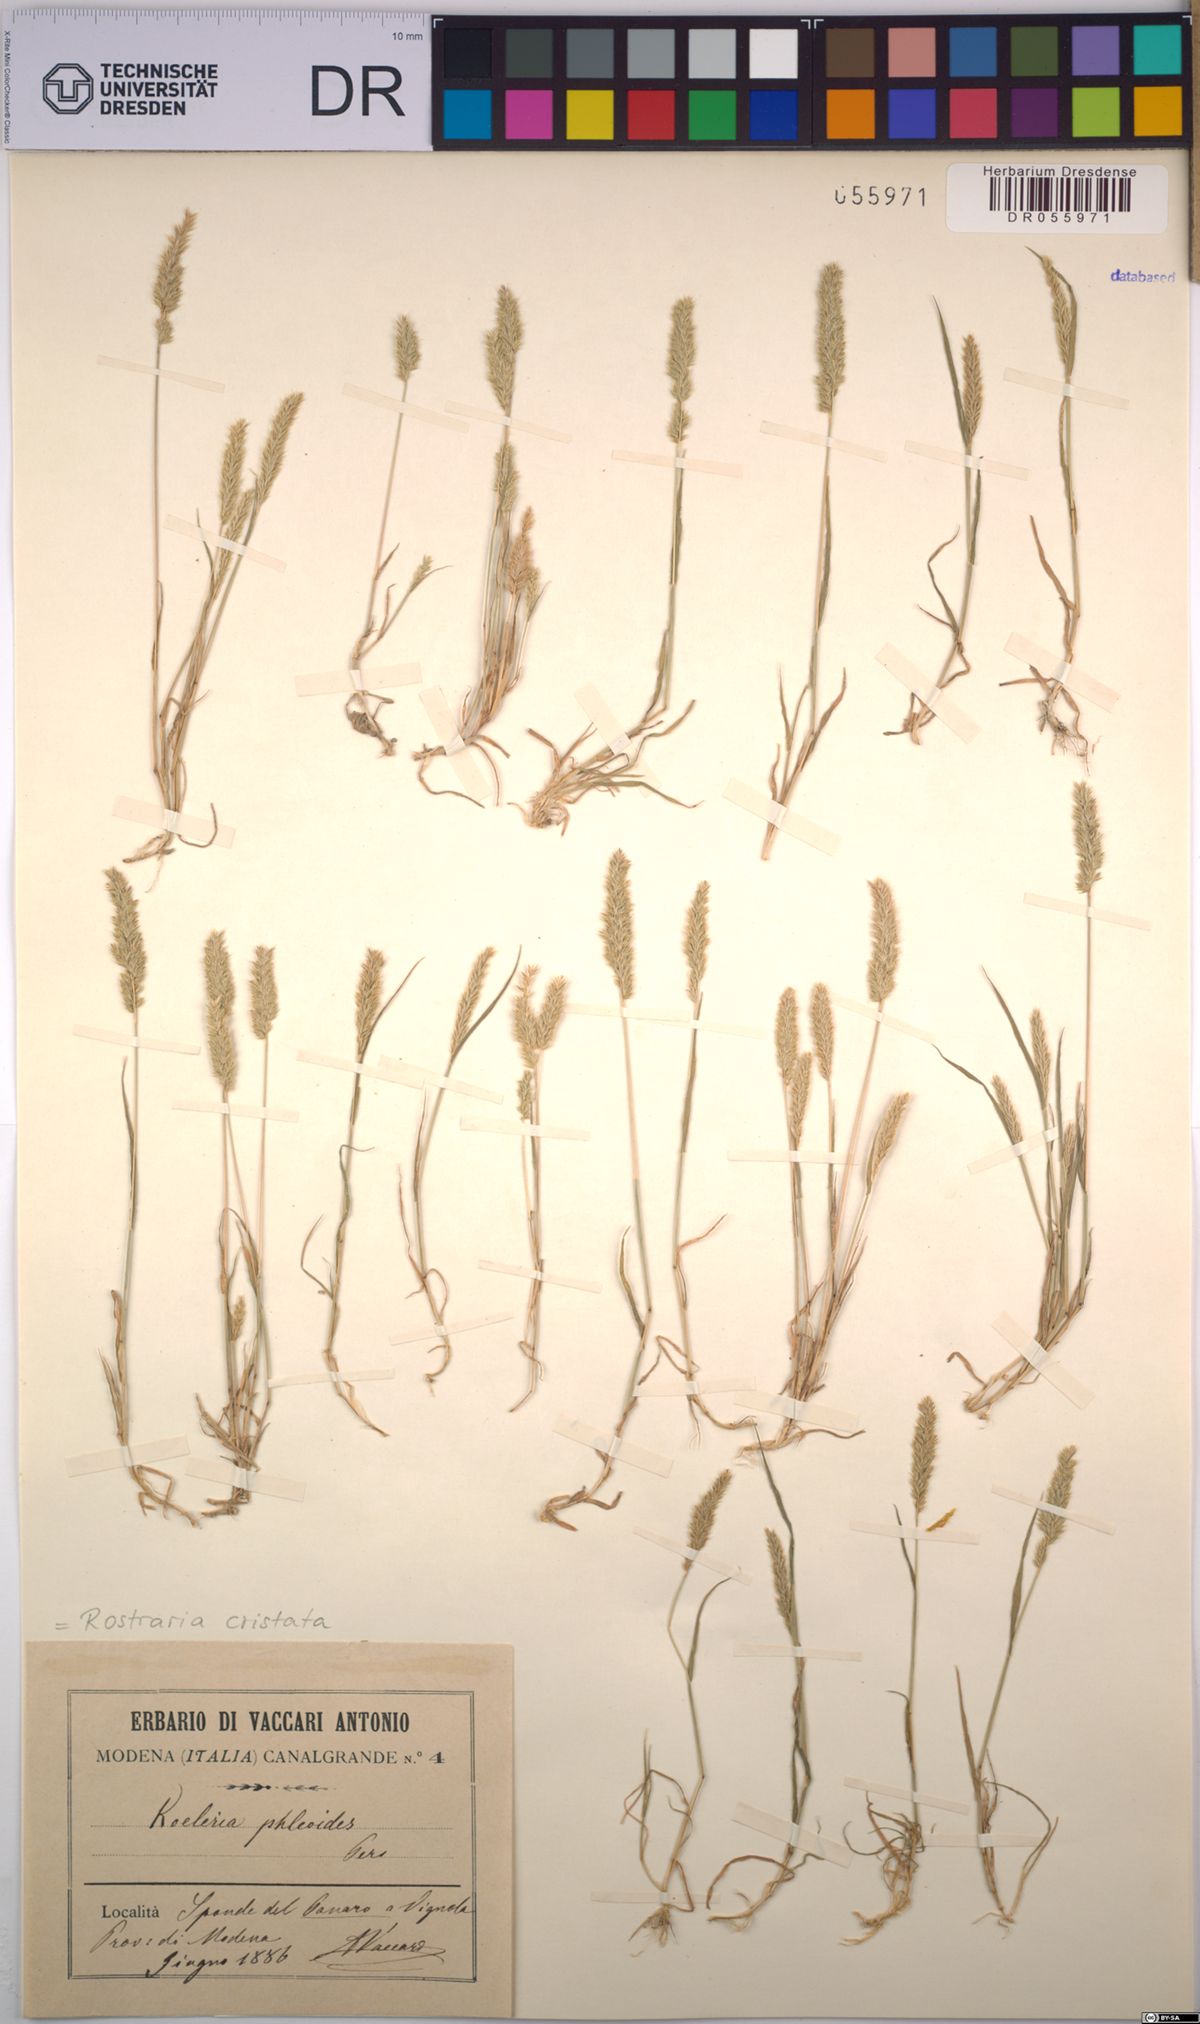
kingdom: Plantae
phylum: Tracheophyta
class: Liliopsida
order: Poales
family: Poaceae
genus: Rostraria
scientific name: Rostraria cristata
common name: Mediterranean hair-grass
